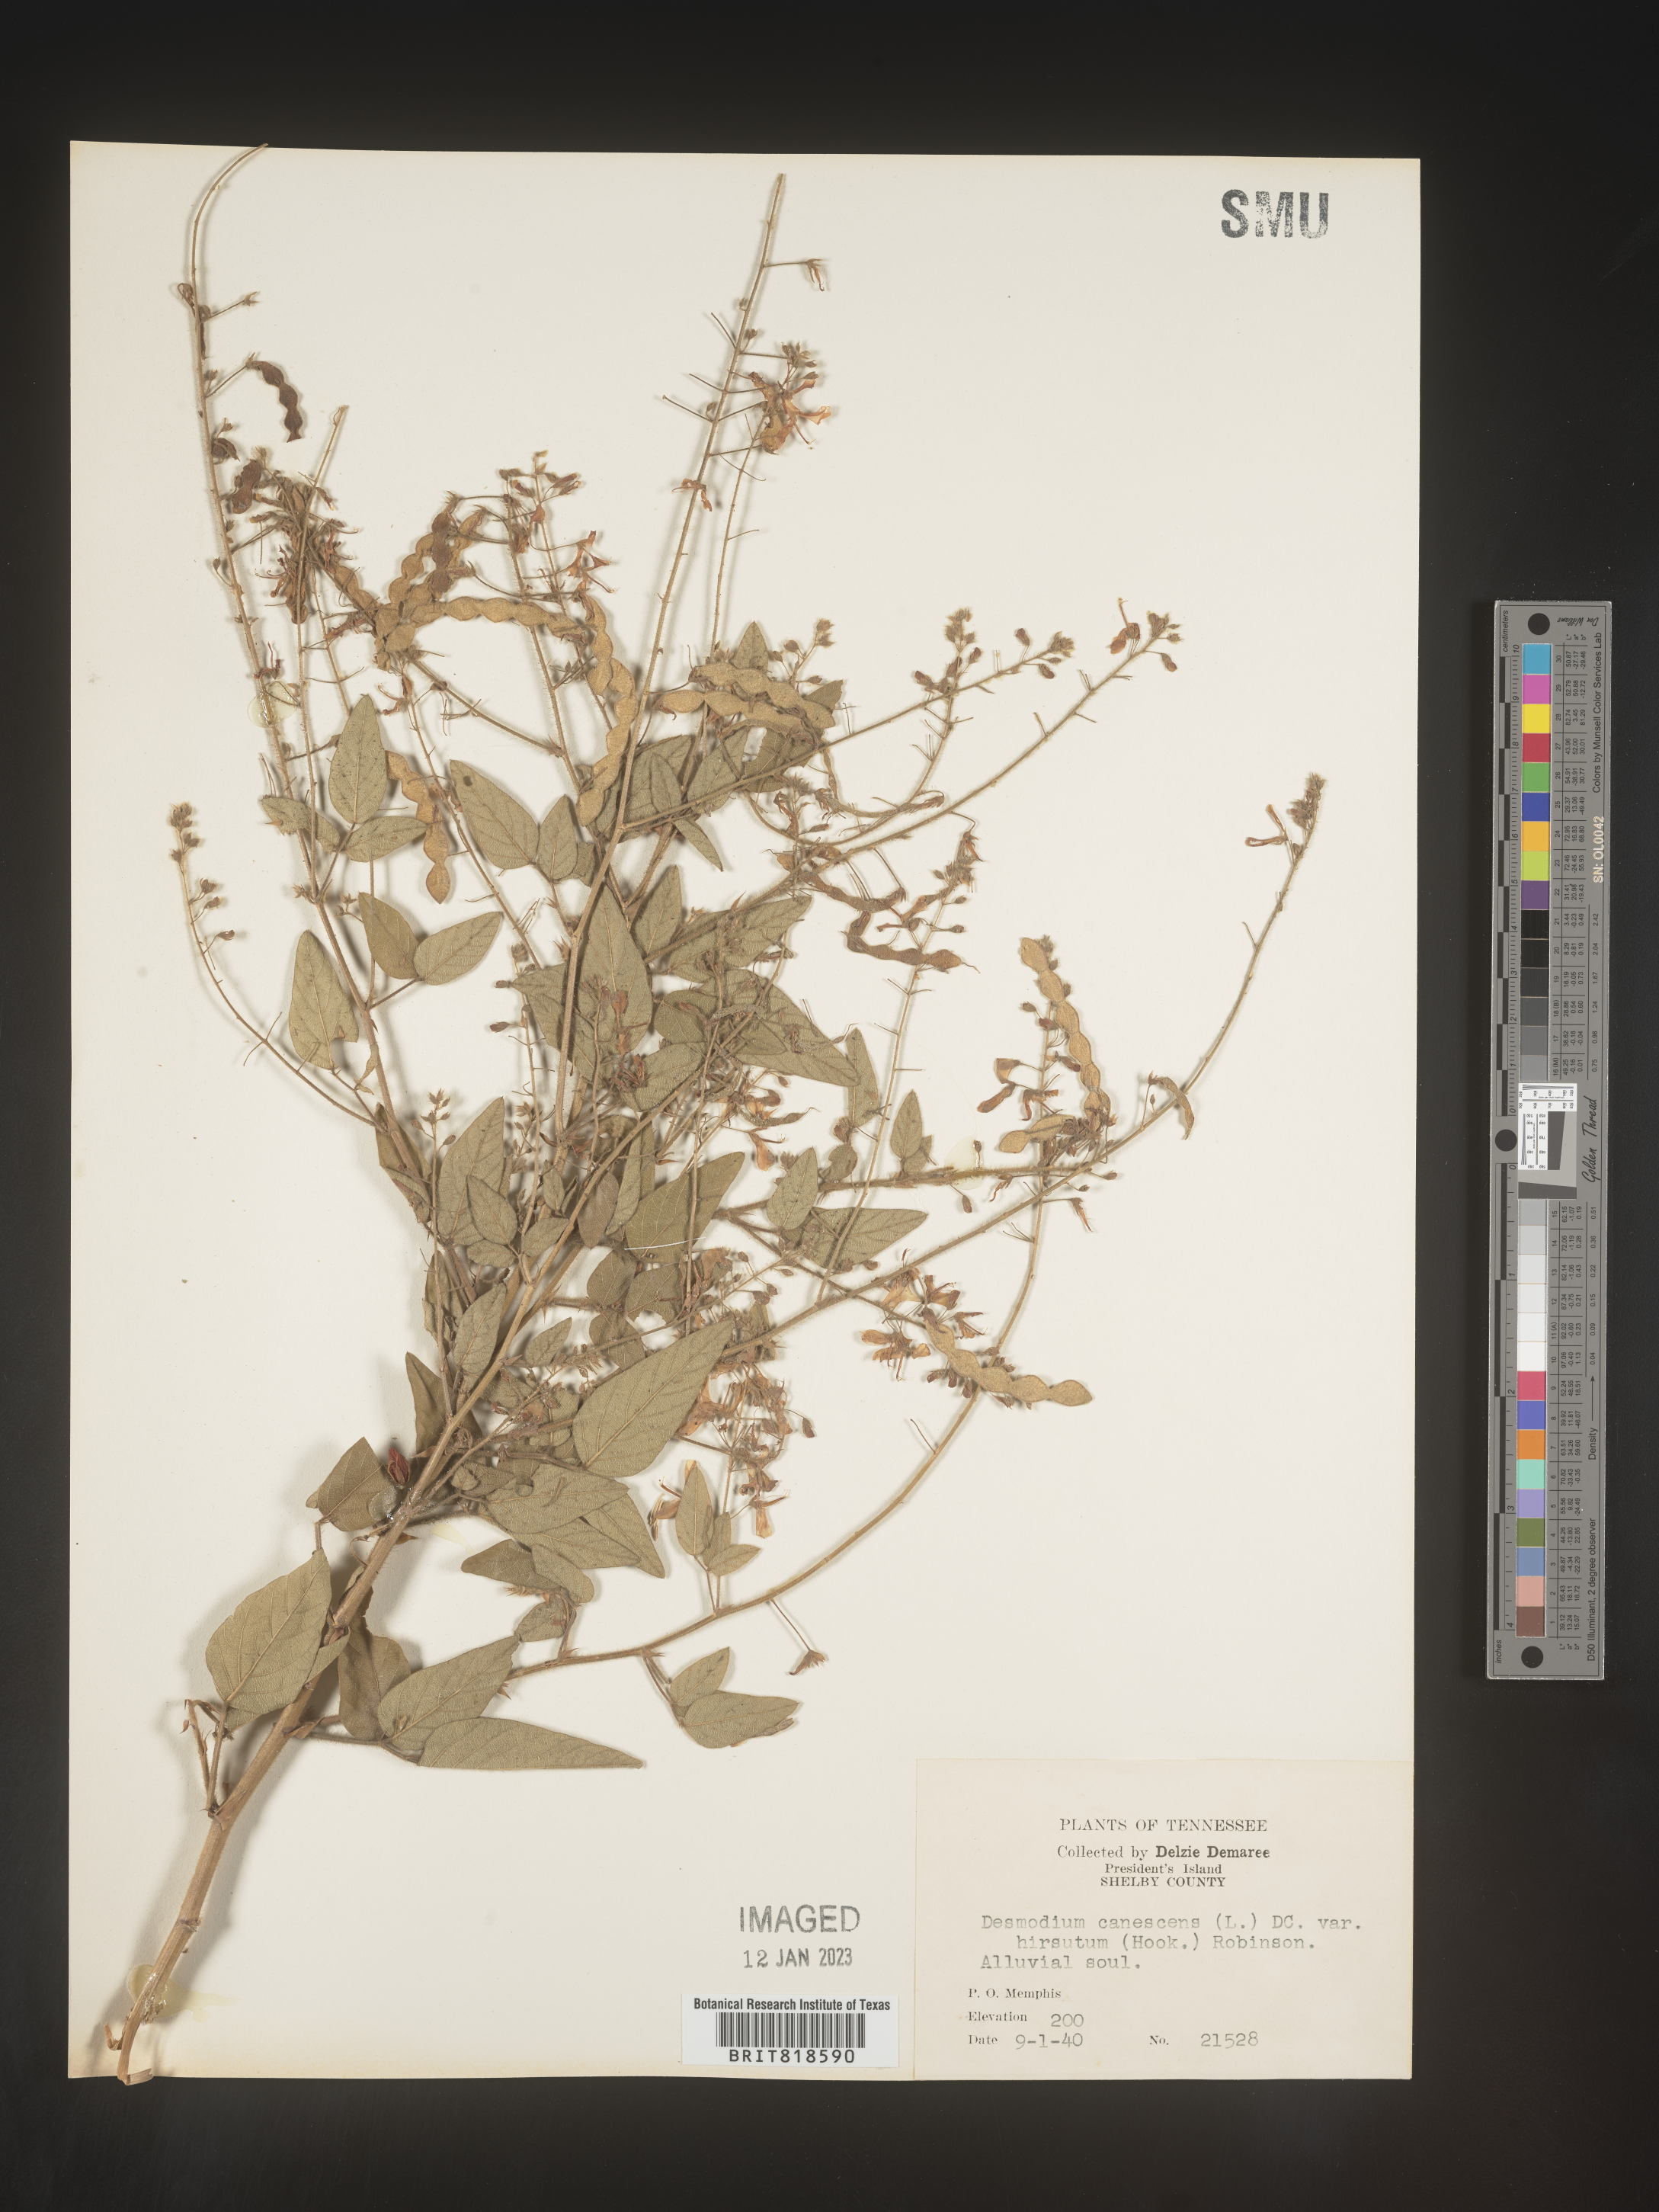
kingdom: Plantae
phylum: Tracheophyta
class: Magnoliopsida
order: Fabales
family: Fabaceae
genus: Desmodium
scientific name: Desmodium canescens
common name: Hoary tick-clover
